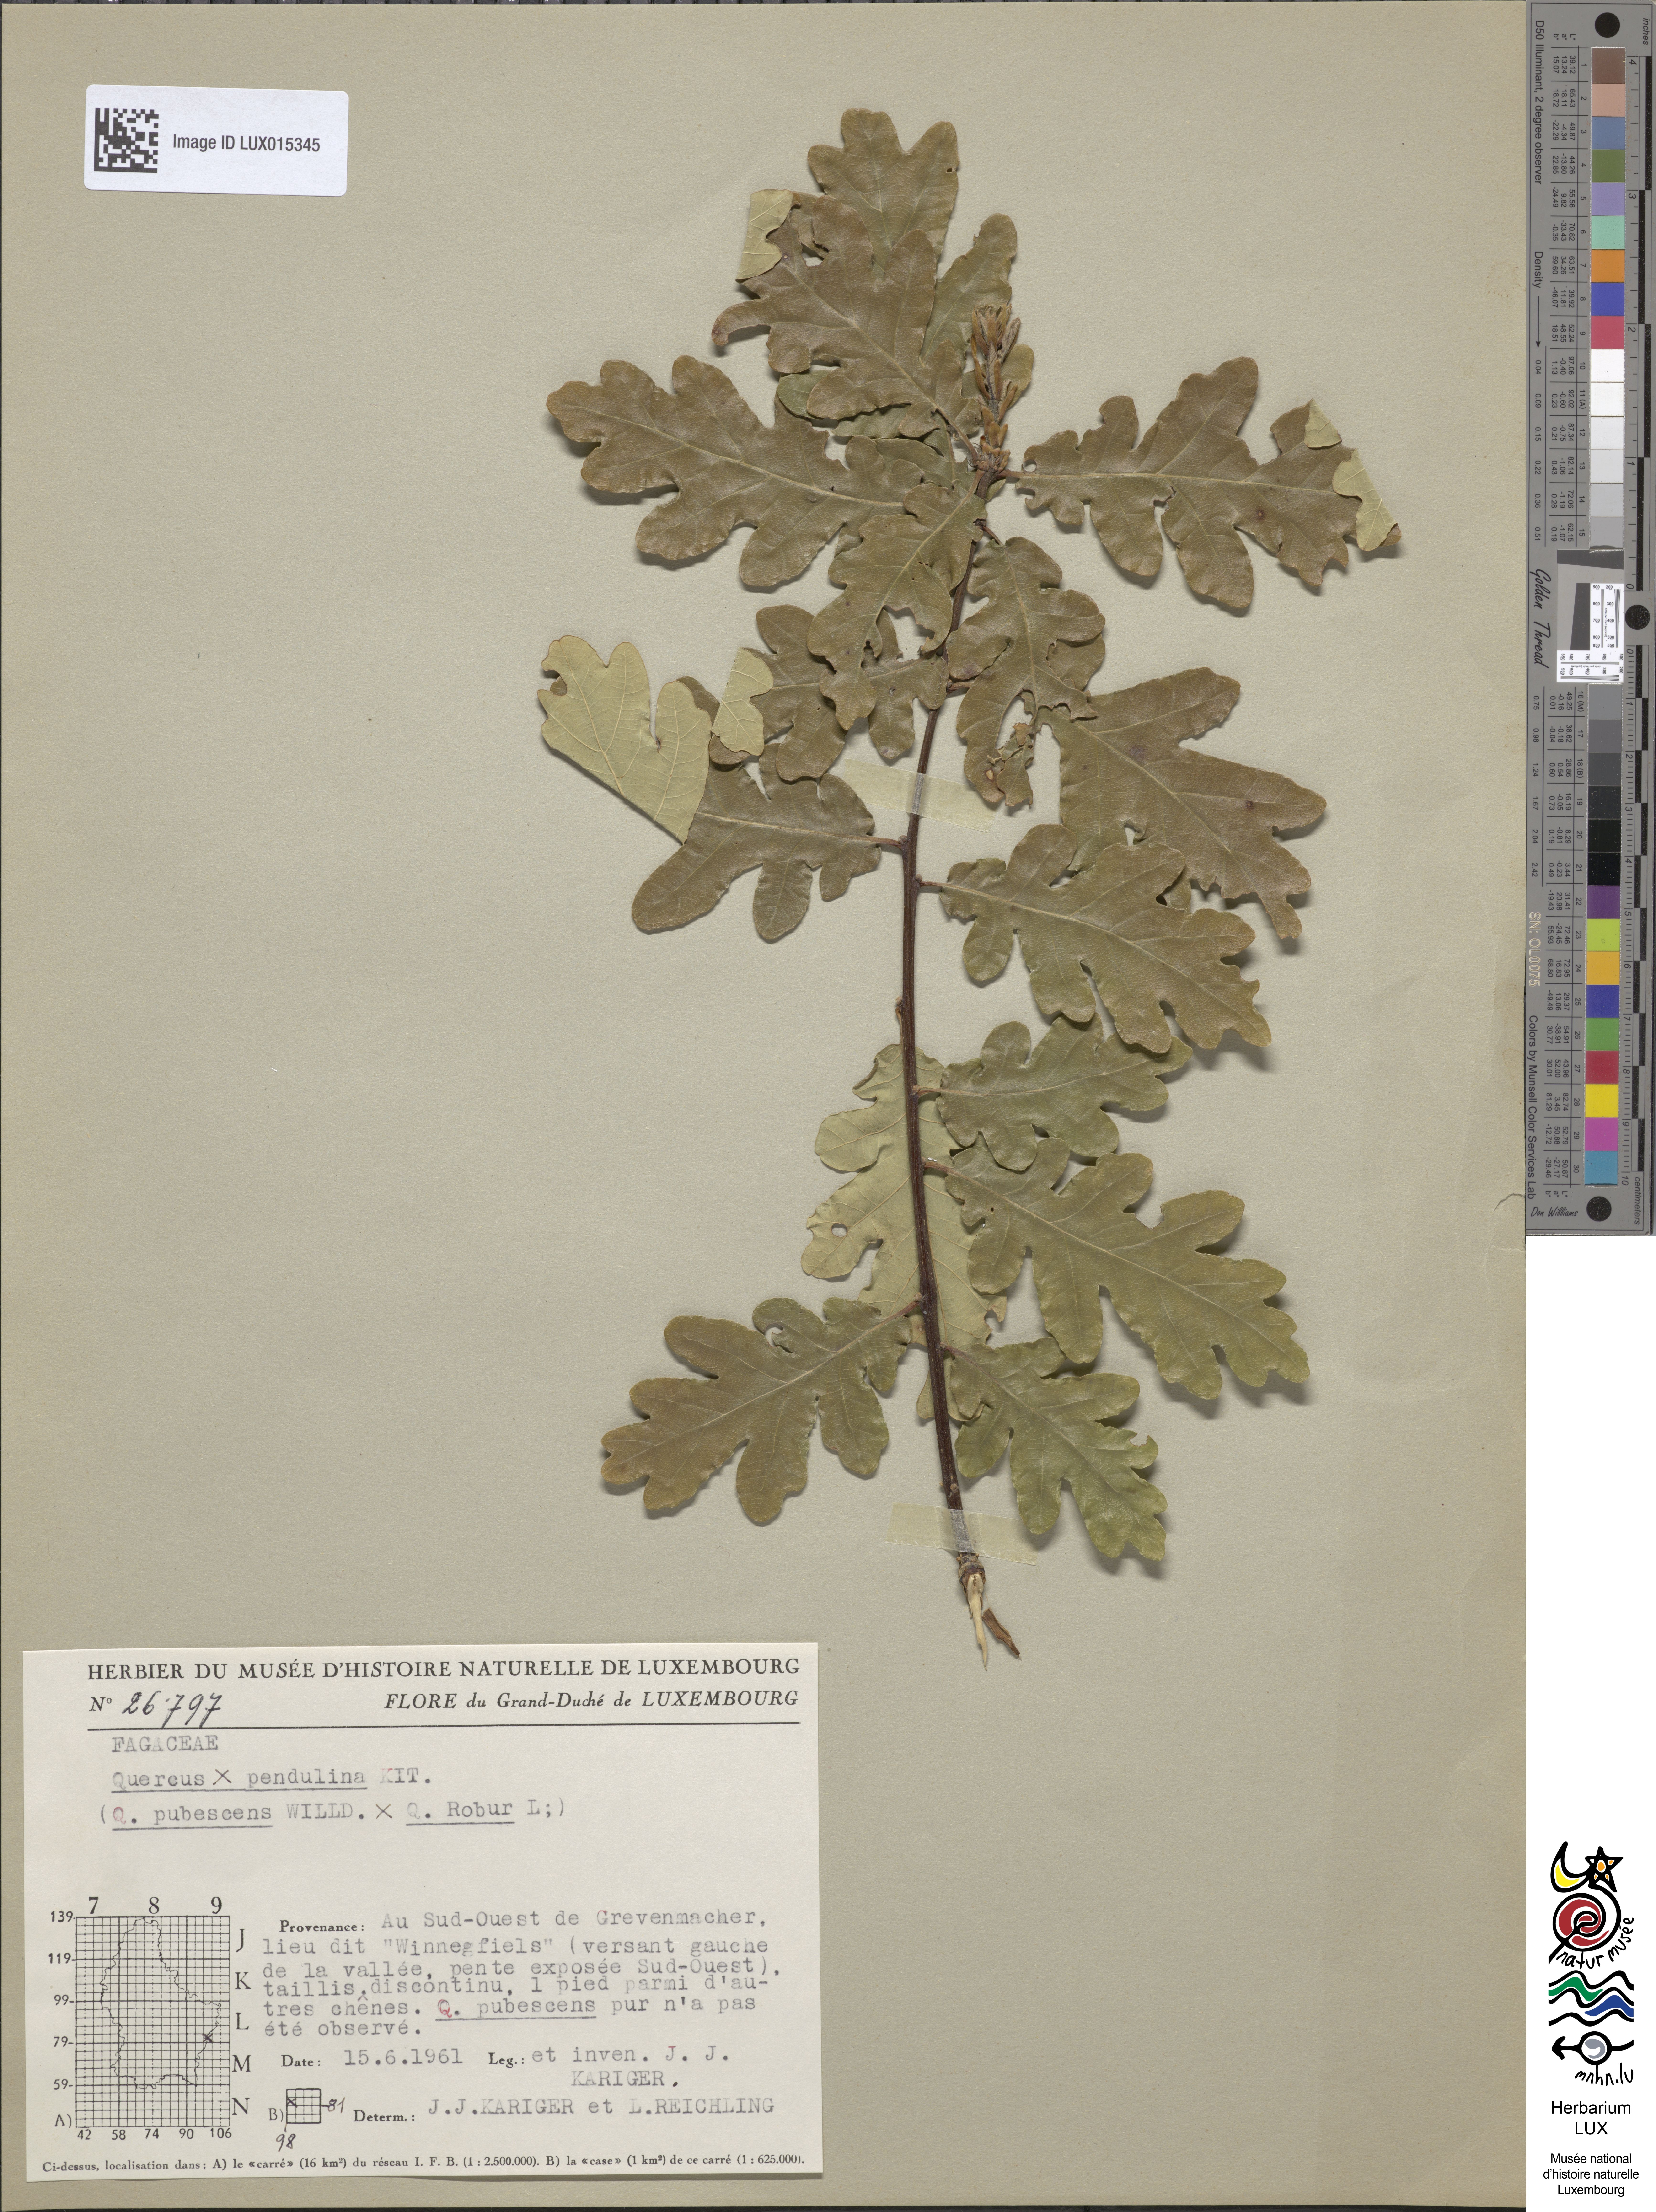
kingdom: Plantae
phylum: Tracheophyta
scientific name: Tracheophyta
